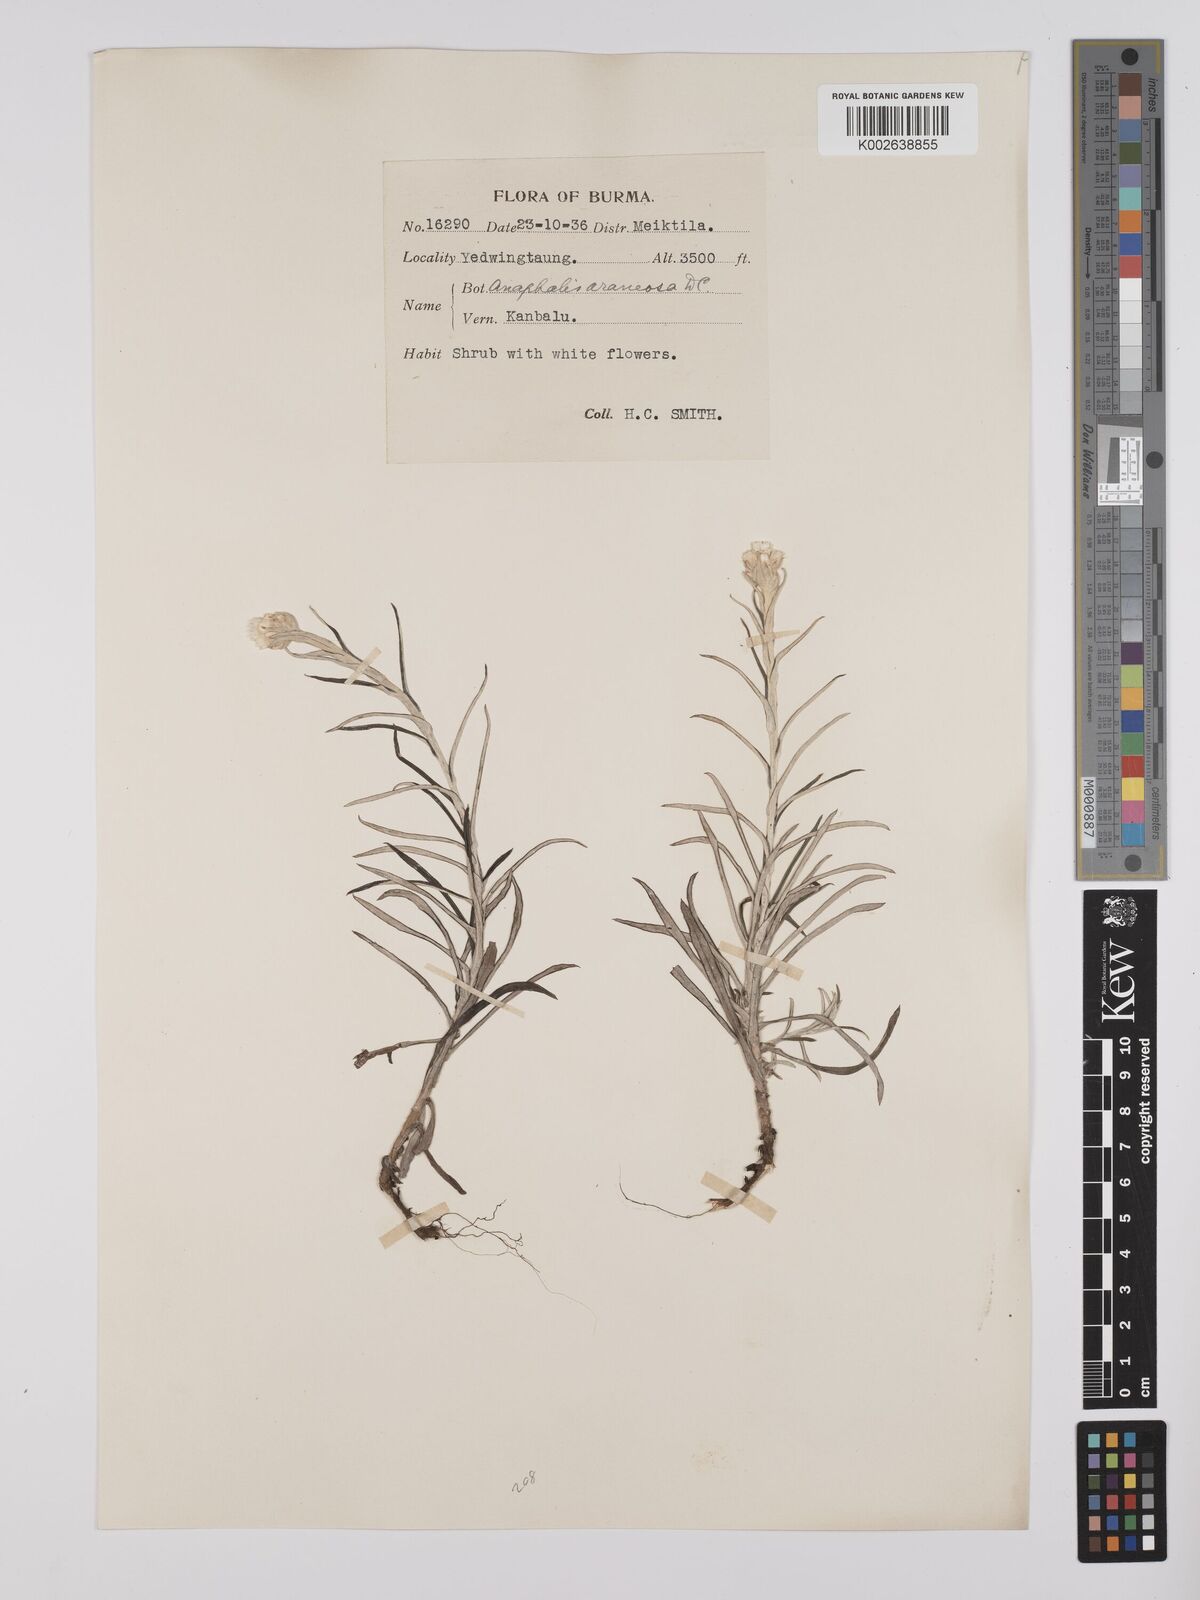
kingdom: Plantae
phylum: Tracheophyta
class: Magnoliopsida
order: Asterales
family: Asteraceae
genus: Anaphalis
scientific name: Anaphalis busua
